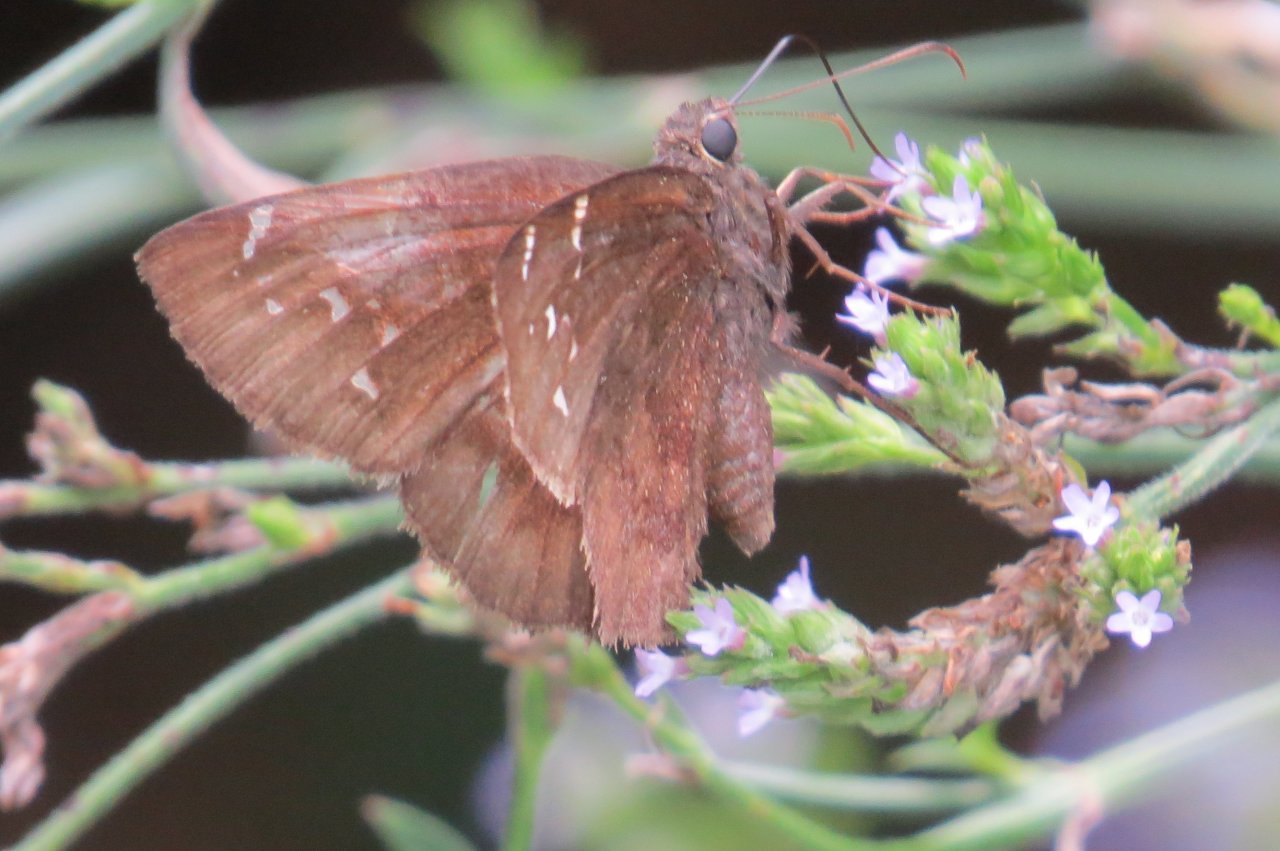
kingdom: Animalia
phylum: Arthropoda
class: Insecta
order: Lepidoptera
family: Hesperiidae
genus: Autochton
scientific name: Autochton
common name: Northern Cloudywing
